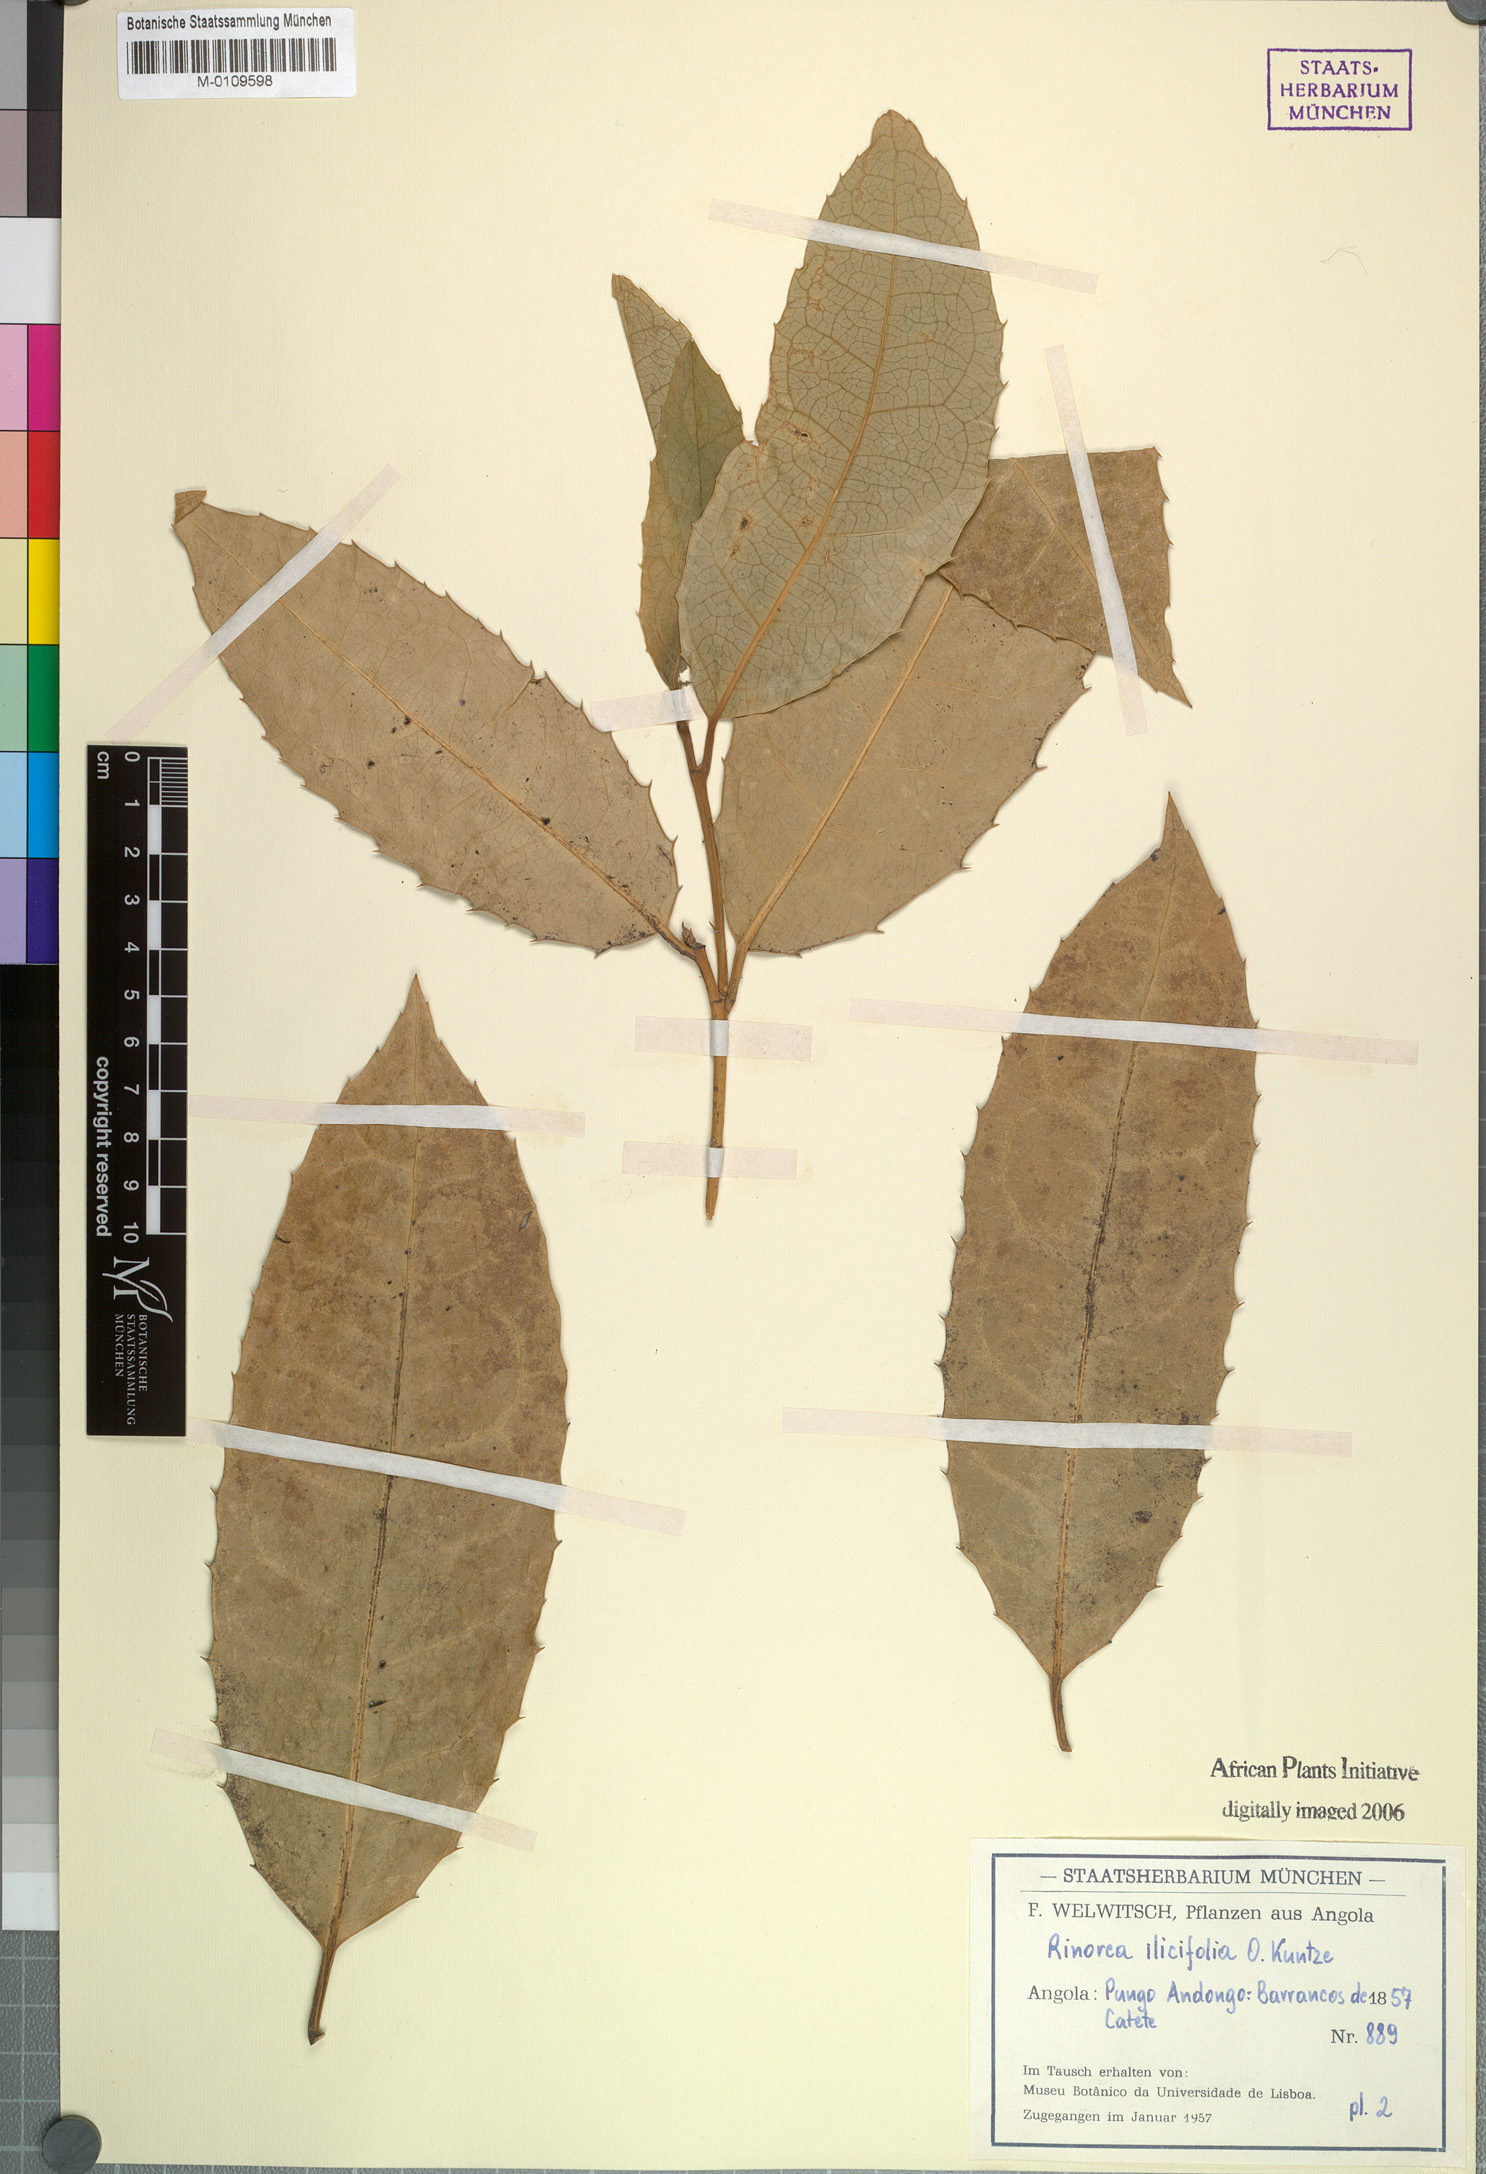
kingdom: Plantae
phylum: Tracheophyta
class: Magnoliopsida
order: Malpighiales
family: Violaceae
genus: Rinorea
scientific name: Rinorea ilicifolia
